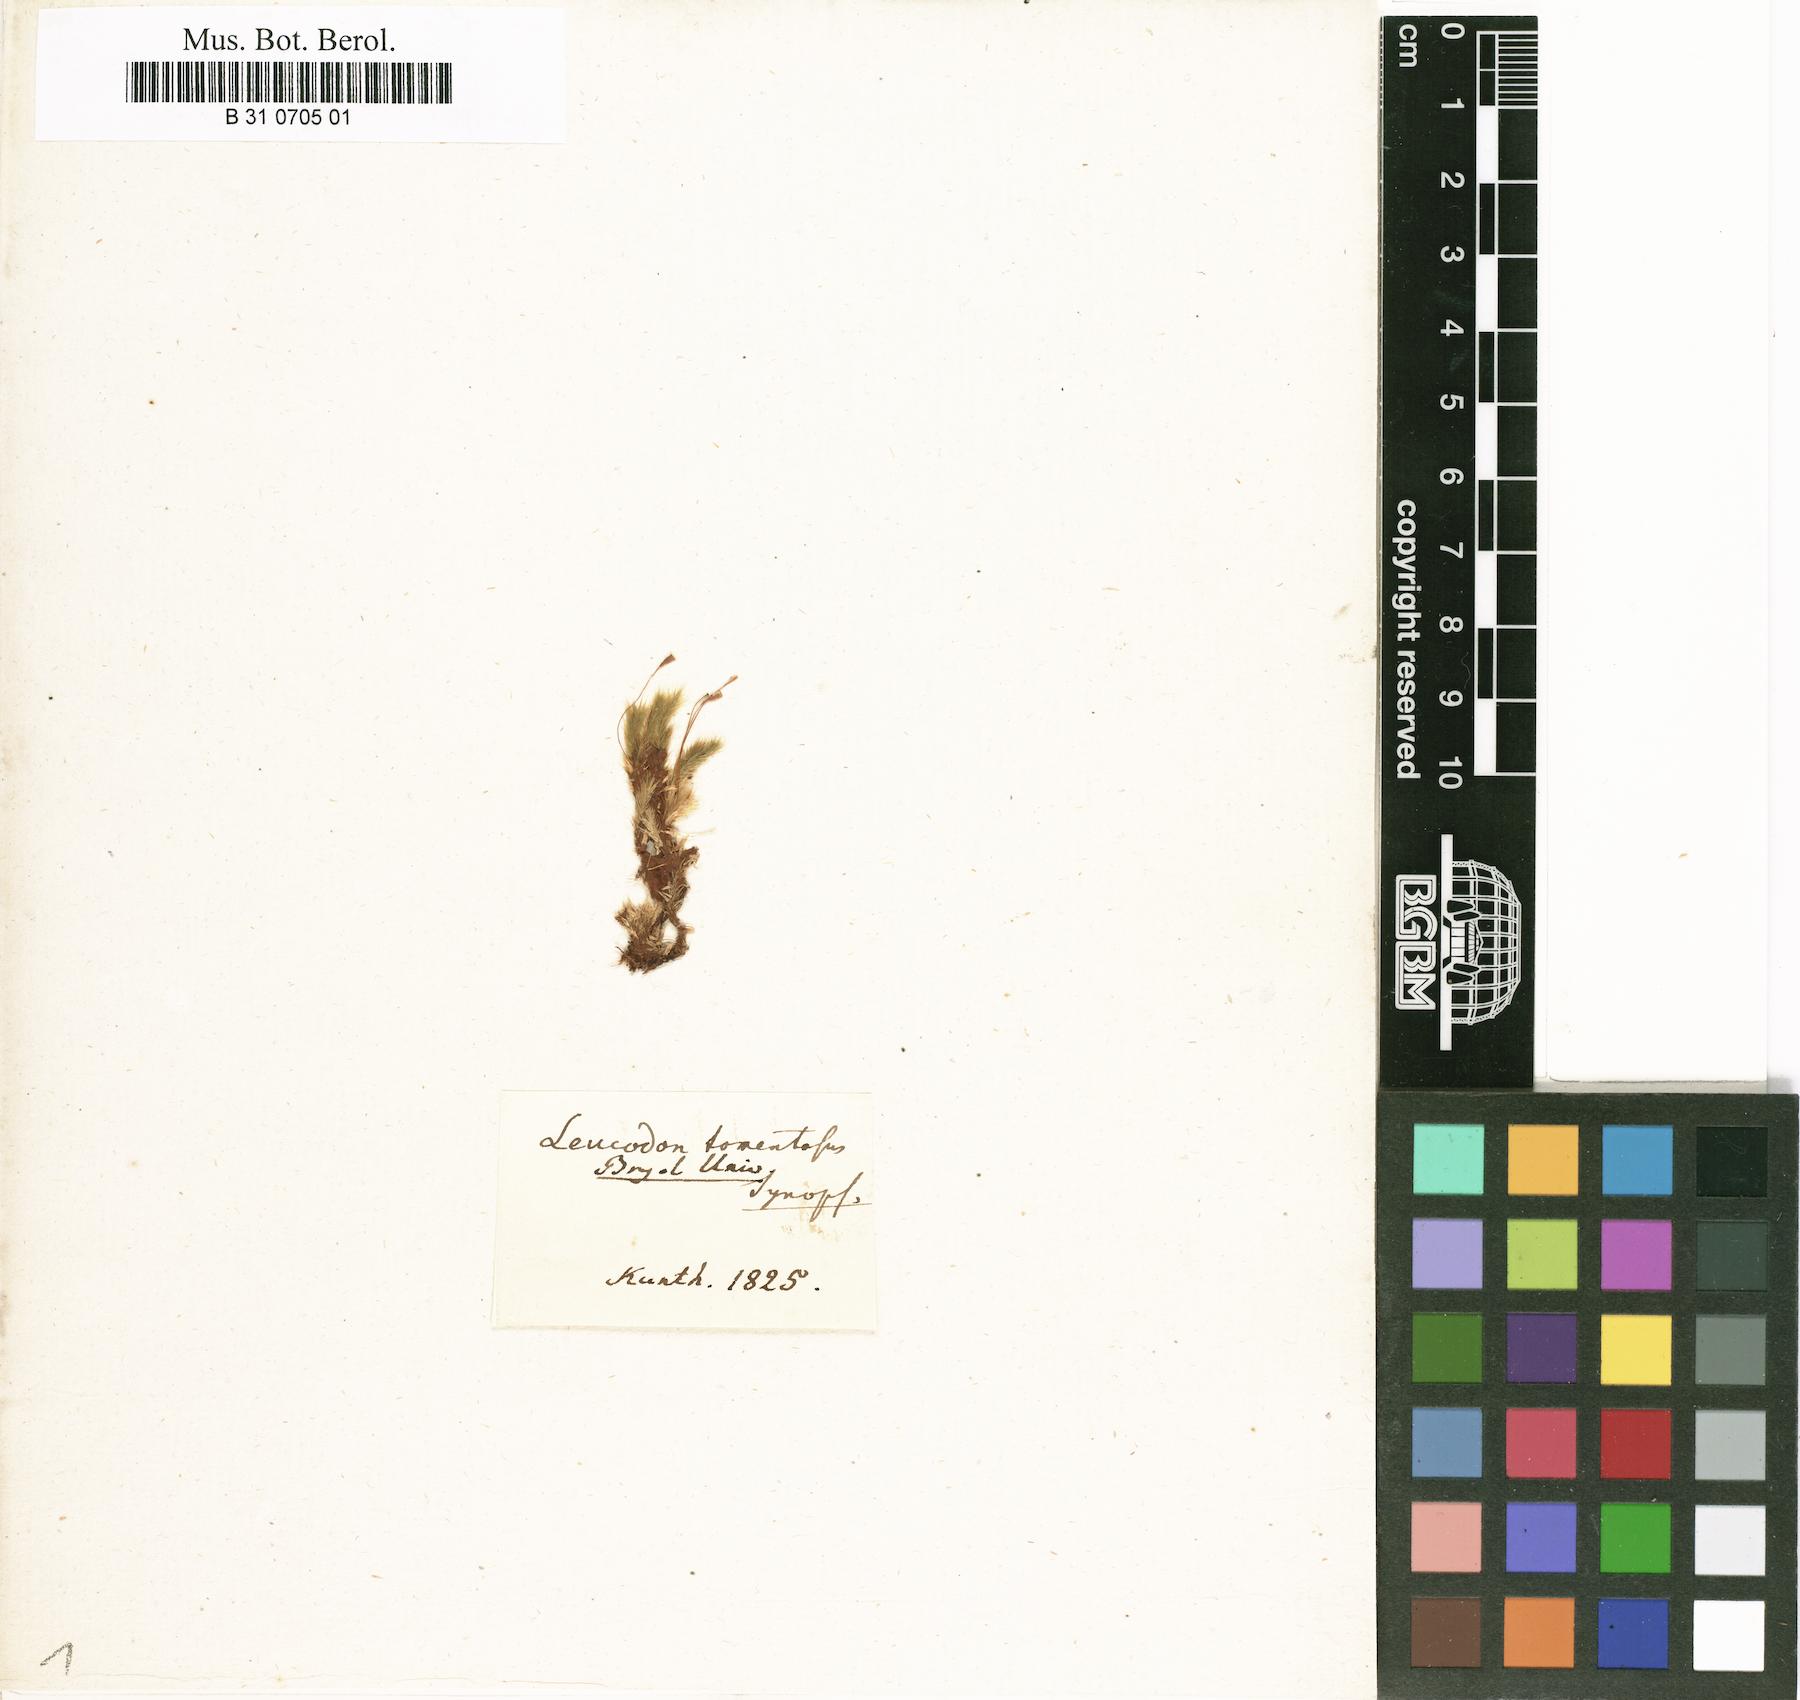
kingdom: Plantae
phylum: Bryophyta
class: Bryopsida
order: Hypnales
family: Lepyrodontaceae
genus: Lepyrodon
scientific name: Lepyrodon tomentosus
